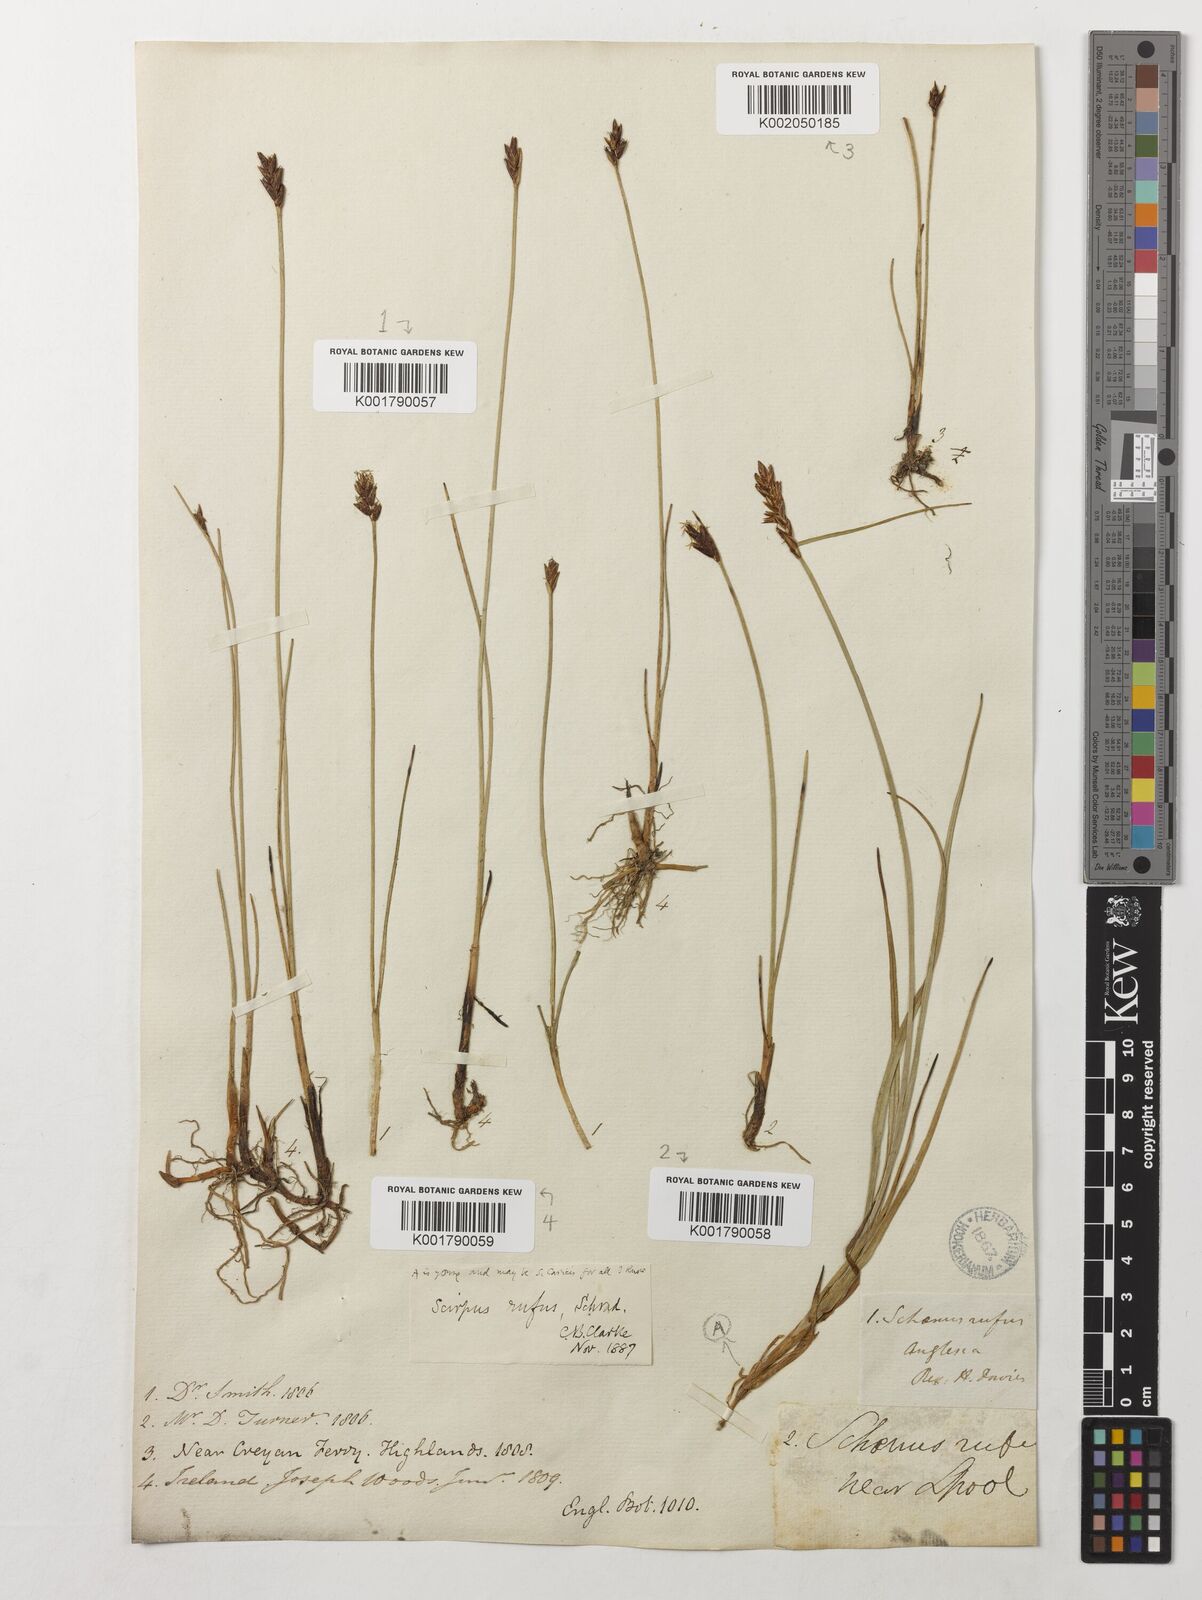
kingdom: Plantae
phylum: Tracheophyta
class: Liliopsida
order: Poales
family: Cyperaceae
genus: Blysmus
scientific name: Blysmus rufus
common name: Saltmarsh flat-sedge
